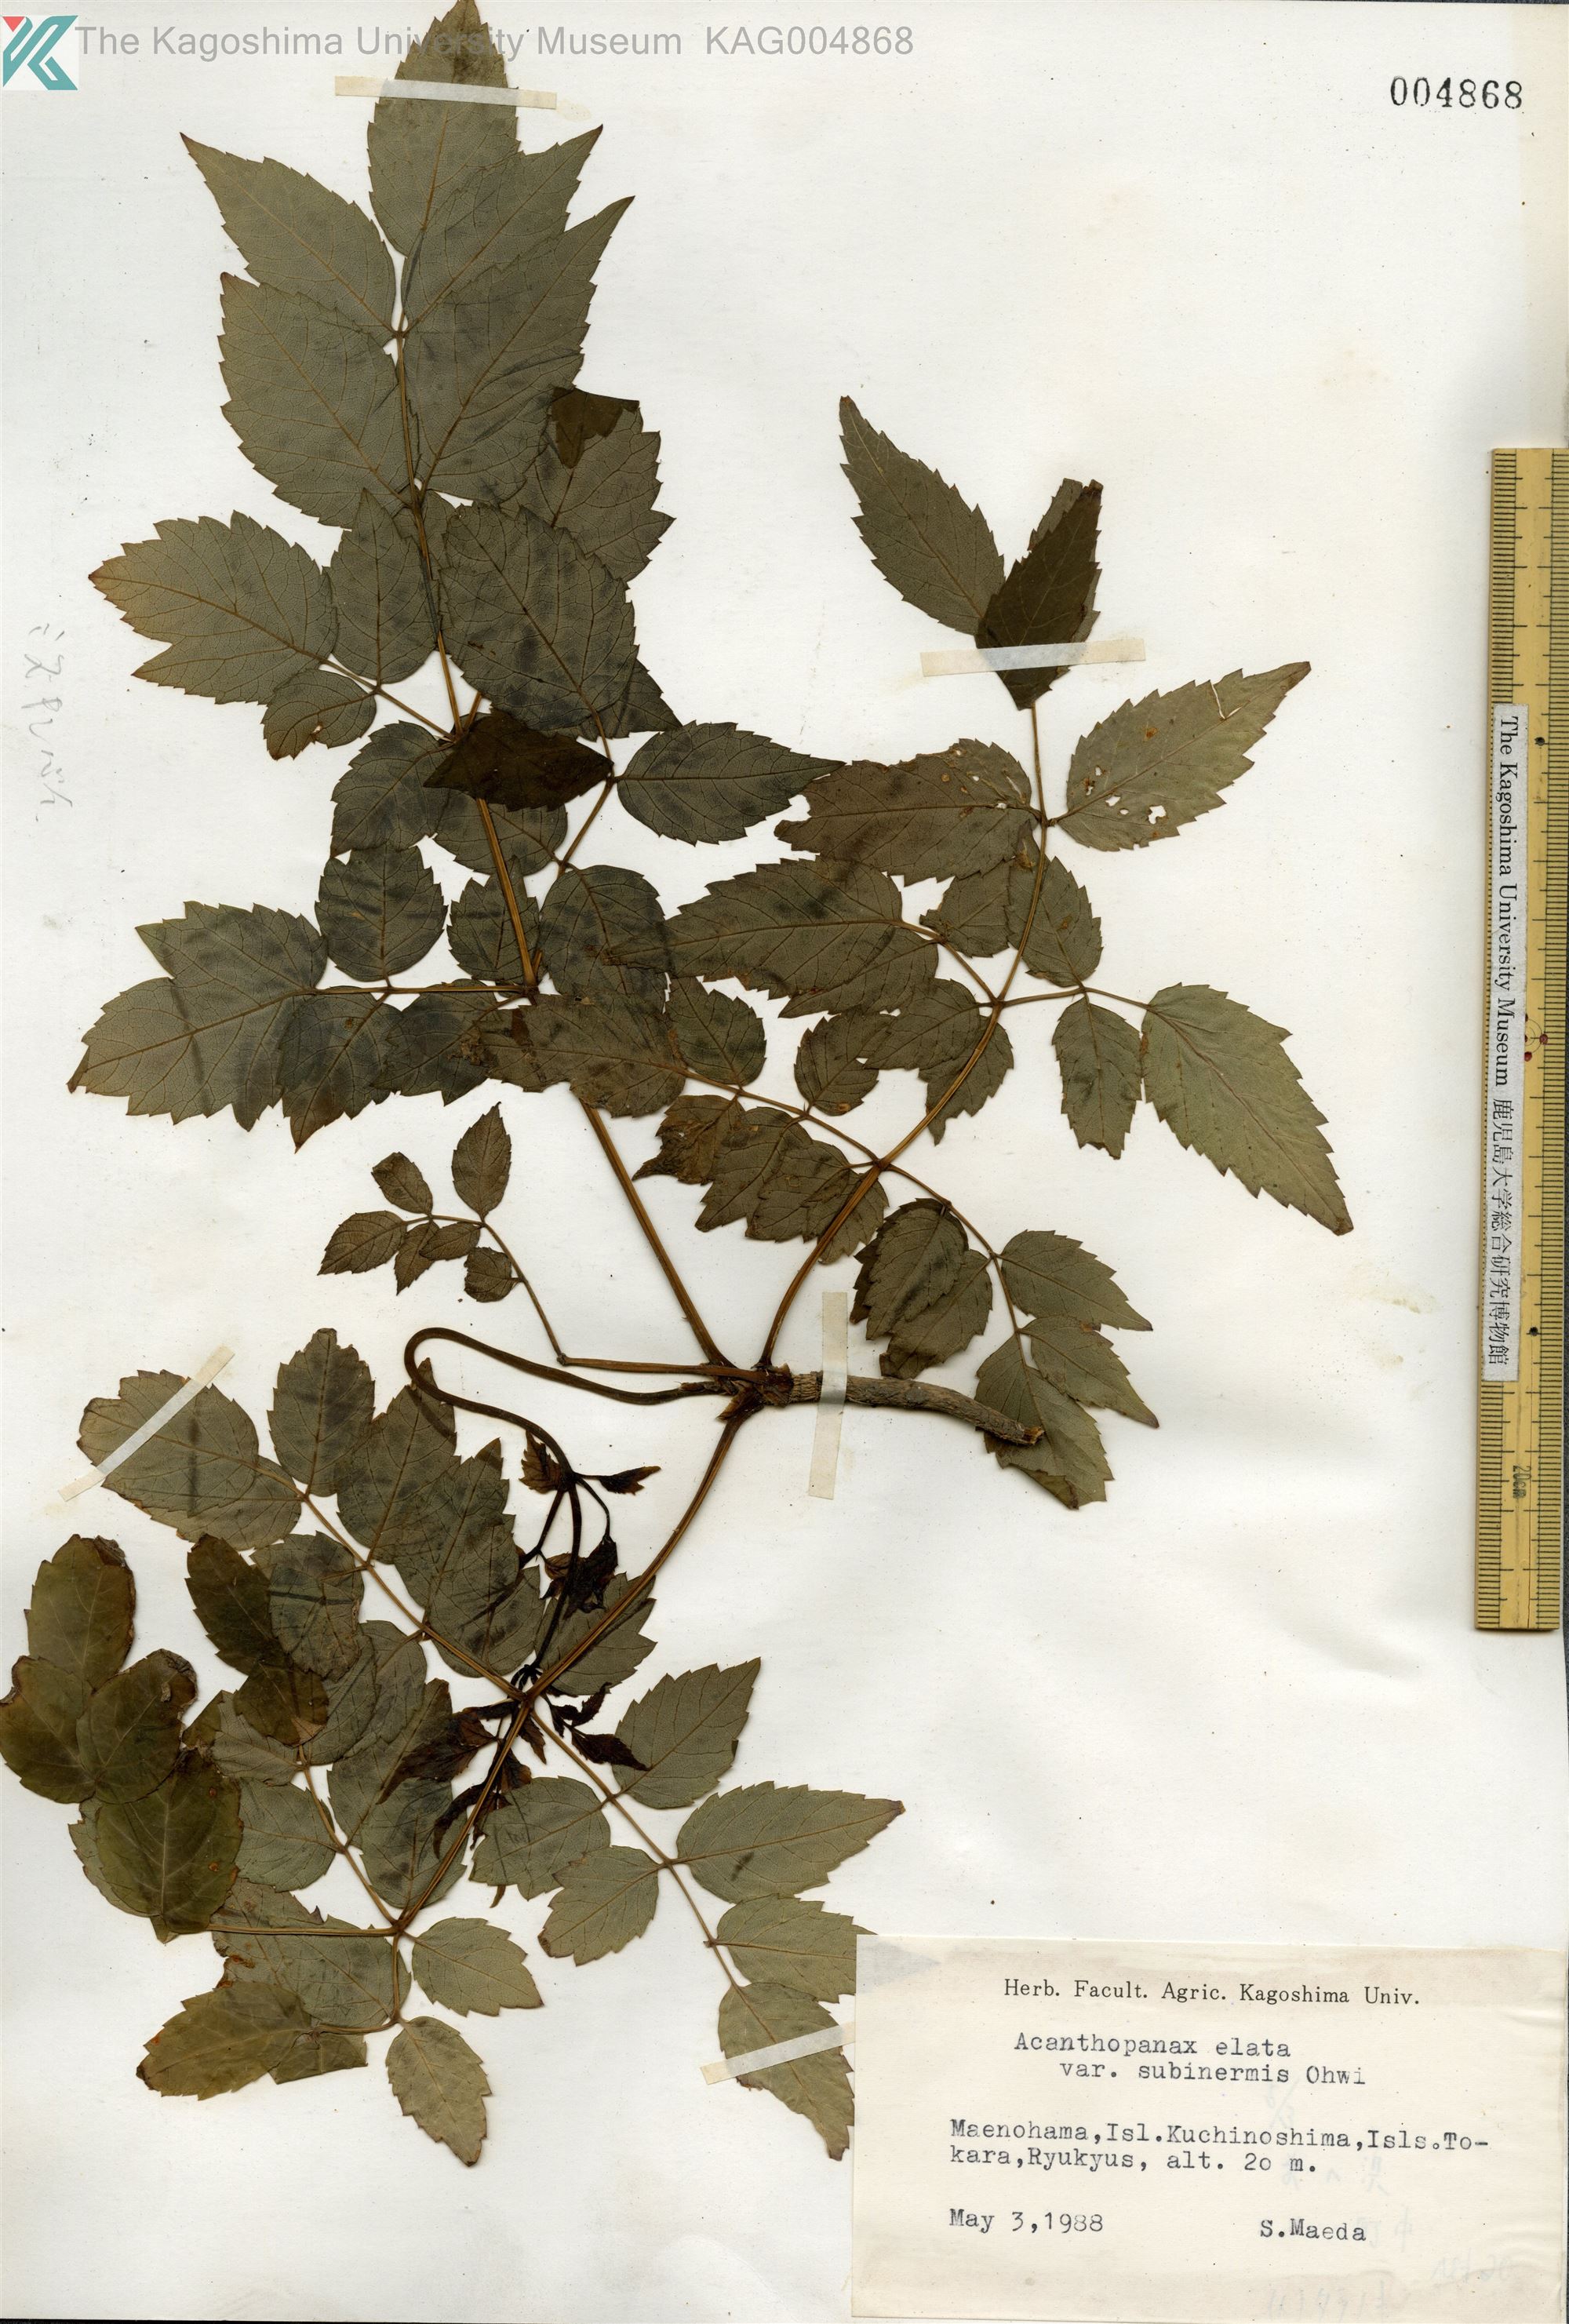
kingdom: Plantae
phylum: Tracheophyta
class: Magnoliopsida
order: Apiales
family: Araliaceae
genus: Aralia
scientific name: Aralia elata
